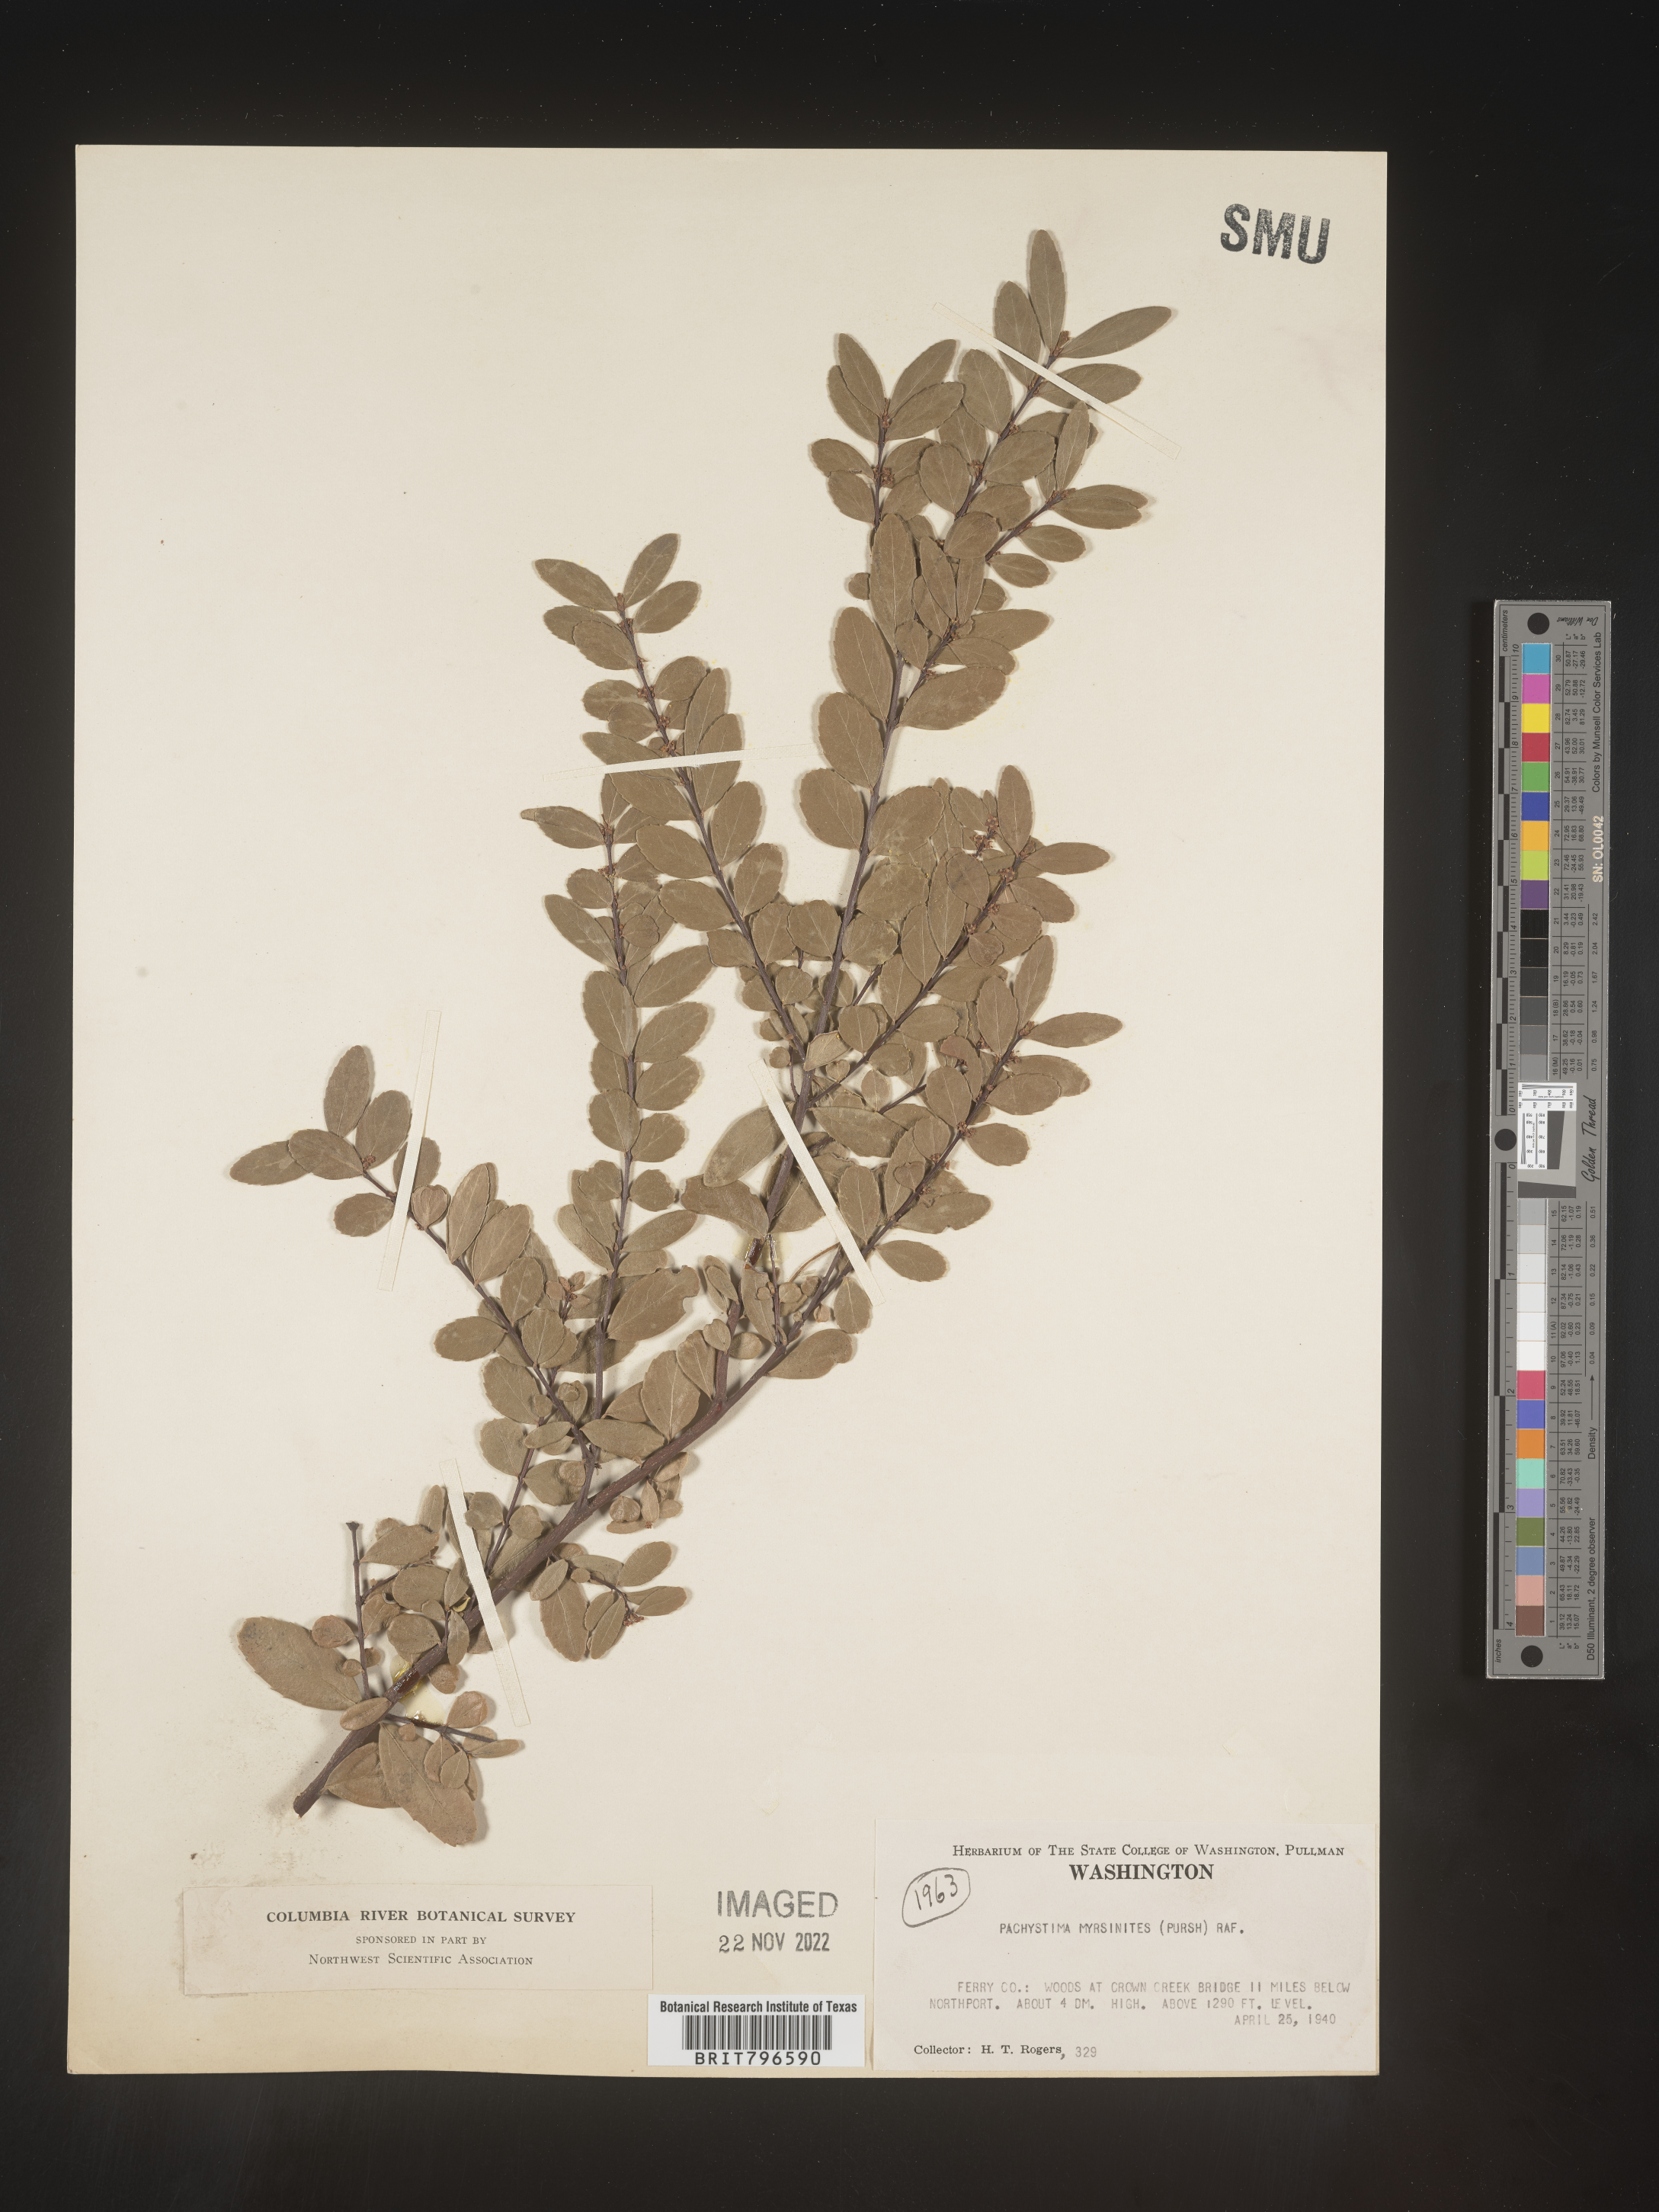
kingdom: Plantae
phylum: Tracheophyta
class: Magnoliopsida
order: Celastrales
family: Celastraceae
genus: Paxistima
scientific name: Paxistima myrsinites
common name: Mountain-lover
